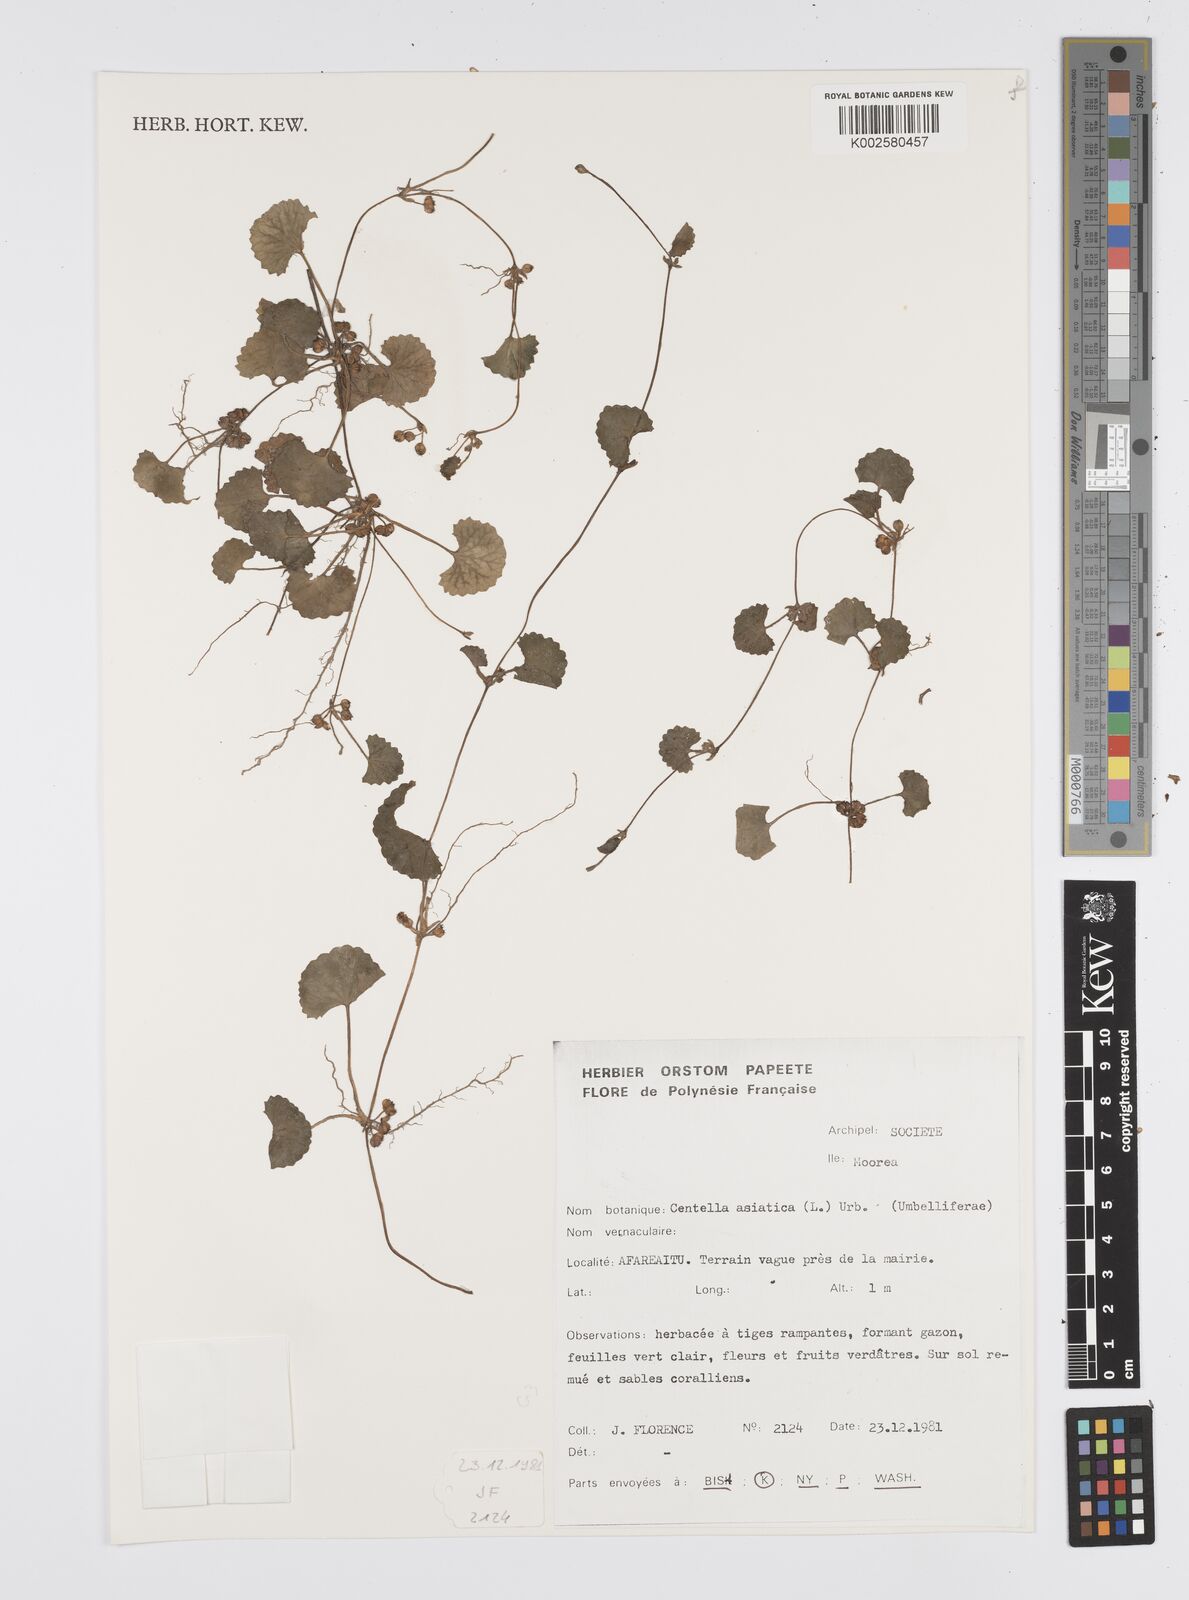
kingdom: Plantae
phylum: Tracheophyta
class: Magnoliopsida
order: Apiales
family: Apiaceae
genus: Centella
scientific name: Centella asiatica
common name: Spadeleaf
